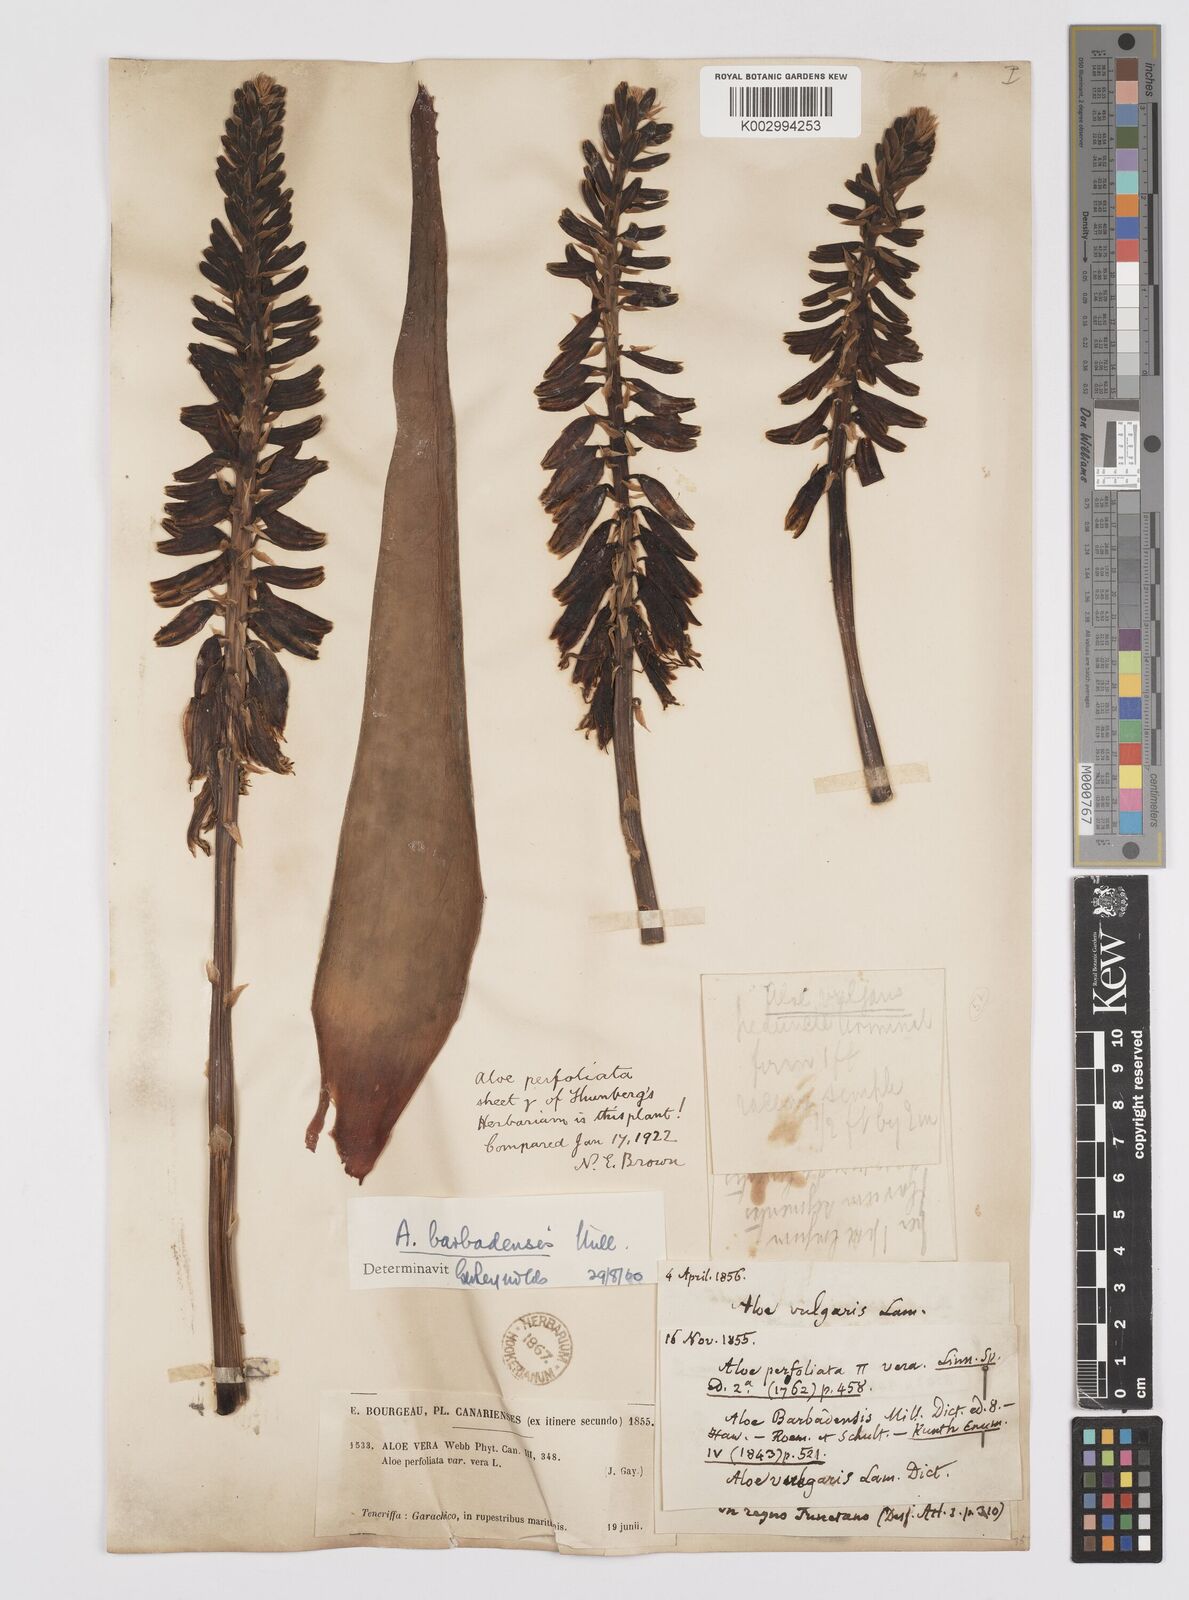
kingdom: Plantae
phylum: Tracheophyta
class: Liliopsida
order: Asparagales
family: Asphodelaceae
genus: Aloe
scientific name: Aloe vera
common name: Barbados aloe
